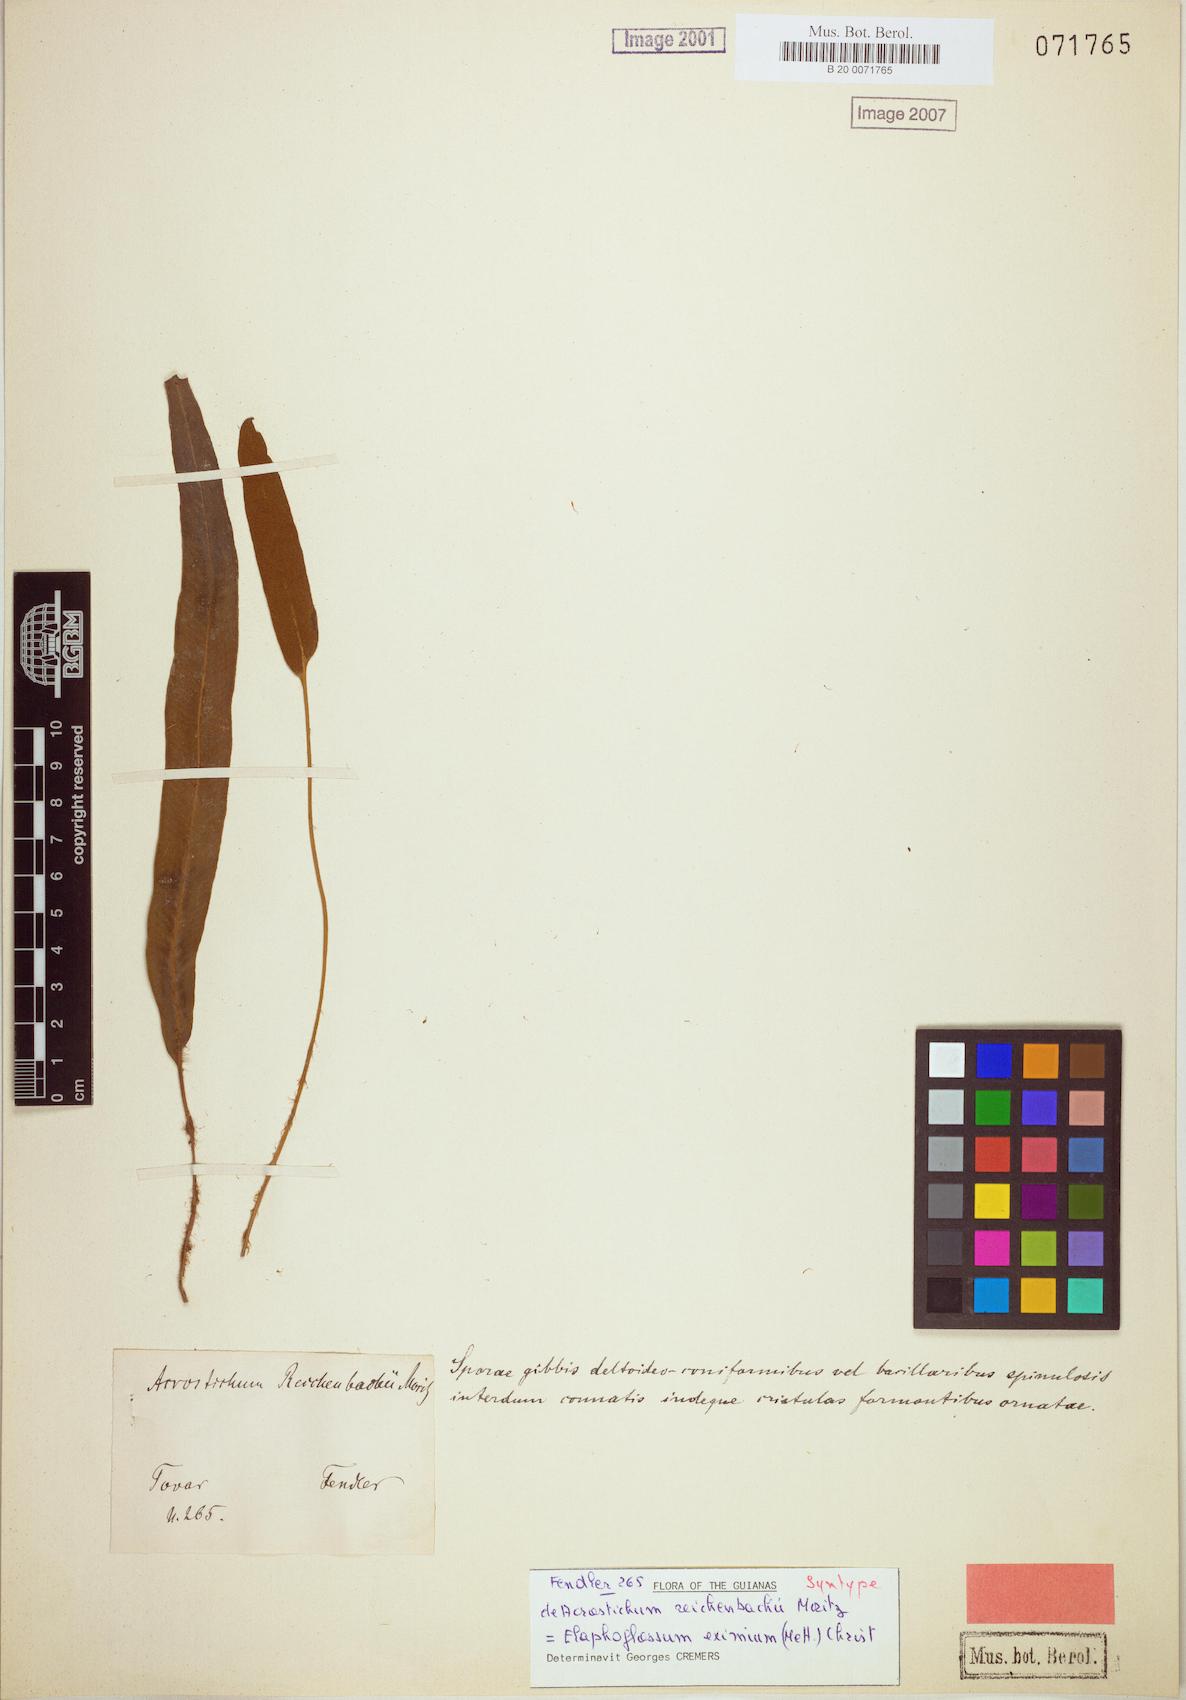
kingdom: Plantae
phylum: Tracheophyta
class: Polypodiopsida
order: Polypodiales
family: Dryopteridaceae
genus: Elaphoglossum
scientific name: Elaphoglossum eximium
